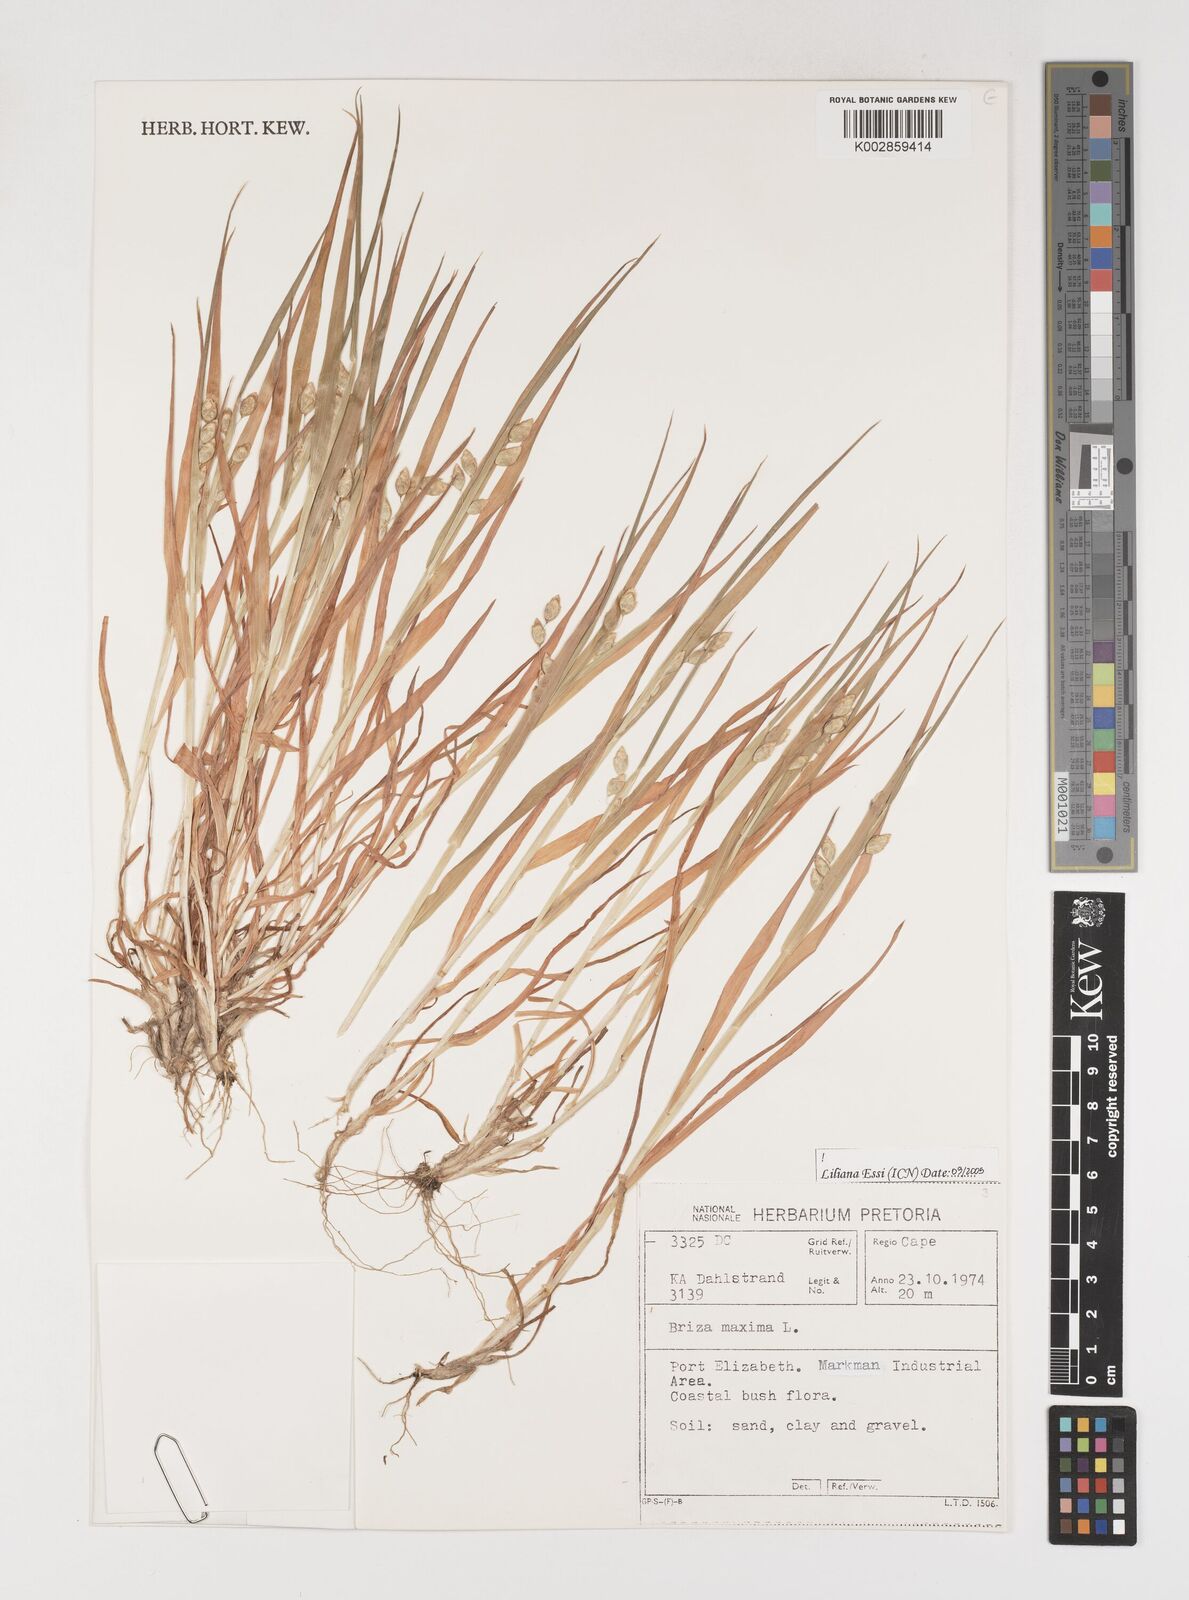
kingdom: Plantae
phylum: Tracheophyta
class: Liliopsida
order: Poales
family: Poaceae
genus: Briza
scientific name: Briza maxima
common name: Big quakinggrass
